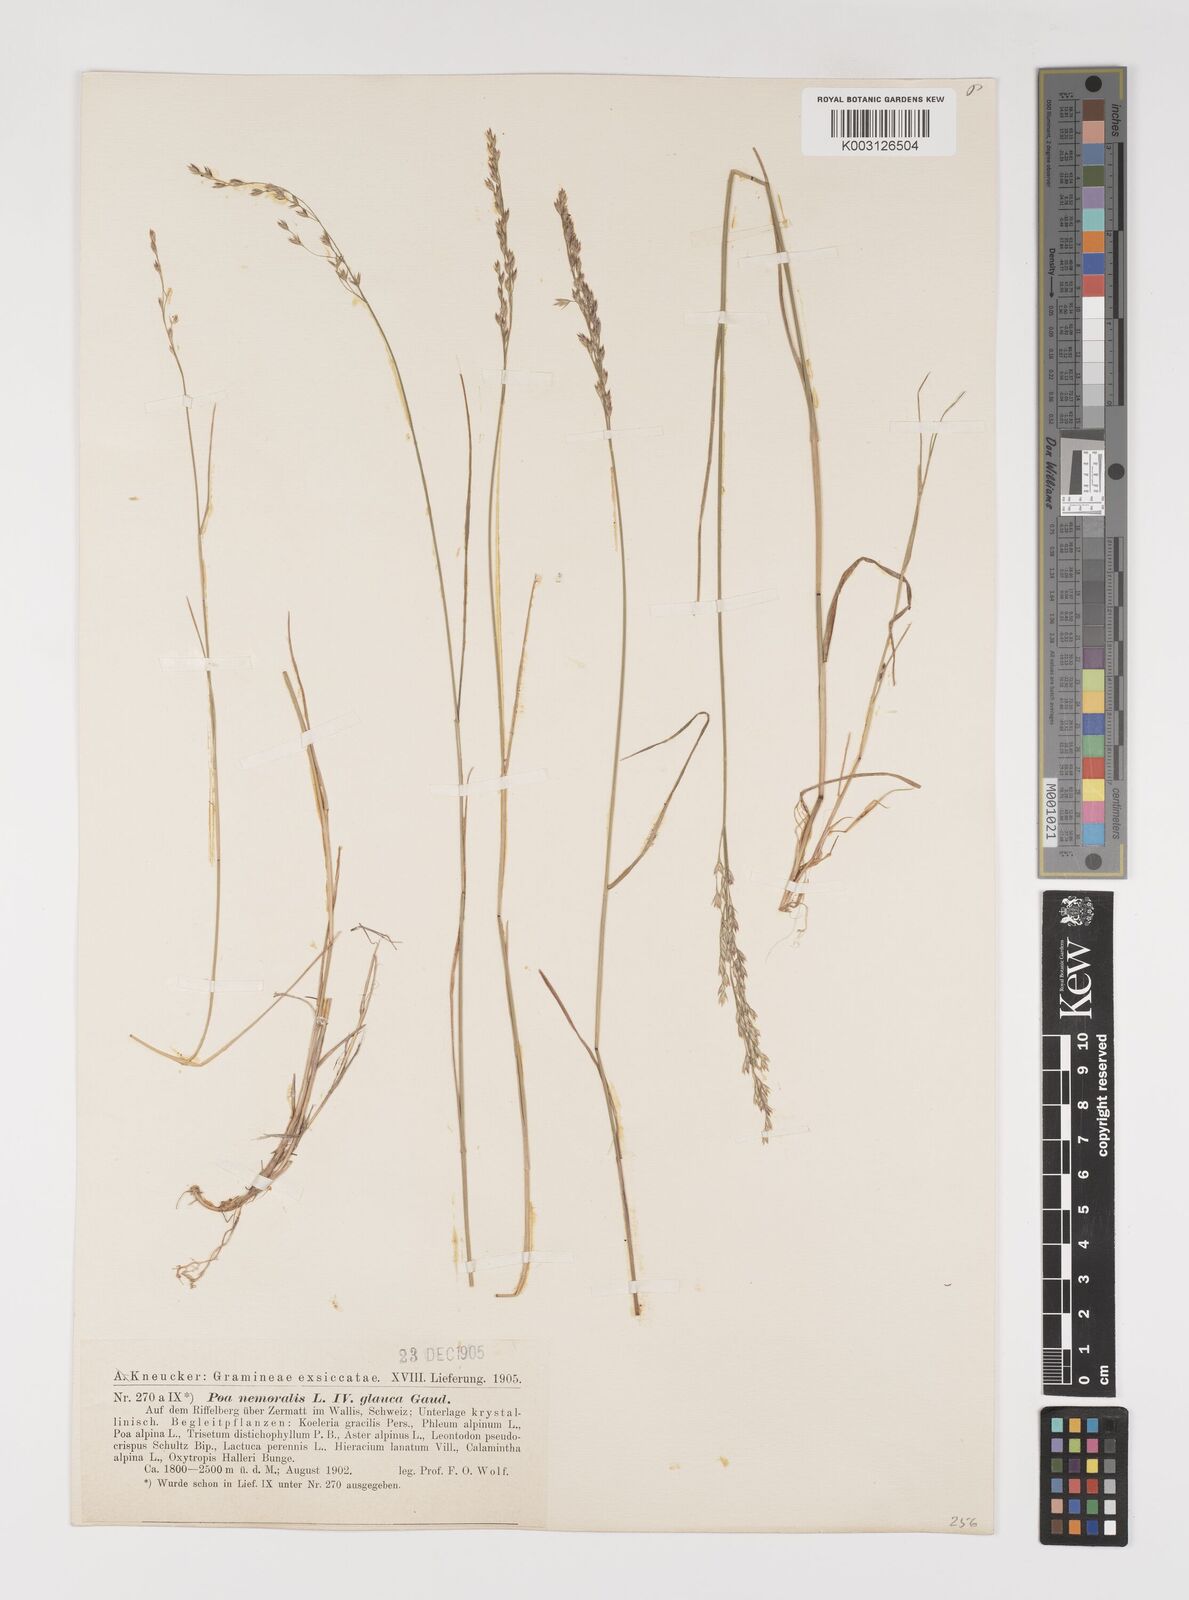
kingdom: Plantae
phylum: Tracheophyta
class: Liliopsida
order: Poales
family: Poaceae
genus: Poa
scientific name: Poa nemoralis
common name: Wood bluegrass
